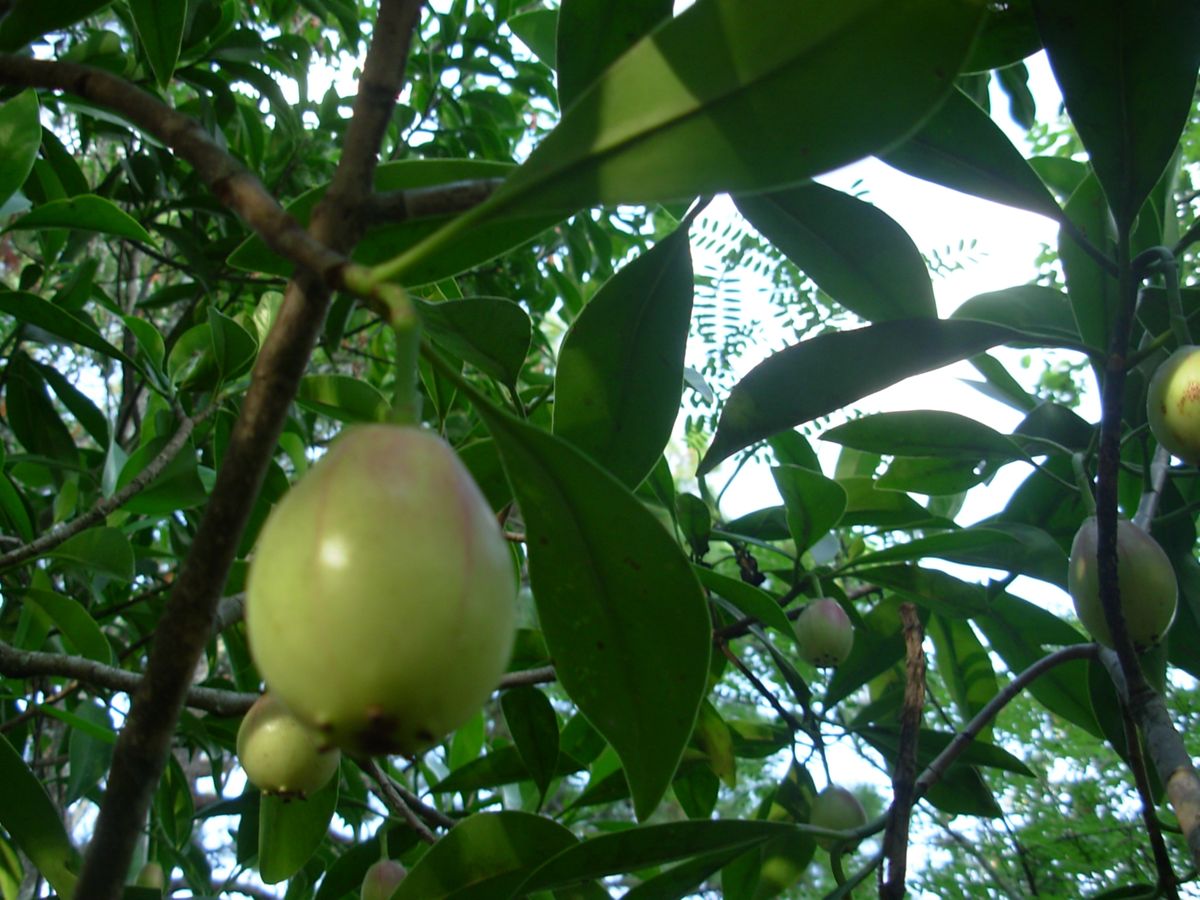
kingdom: Plantae
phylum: Tracheophyta
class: Magnoliopsida
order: Malpighiales
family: Clusiaceae
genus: Clusia
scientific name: Clusia guatemalensis
